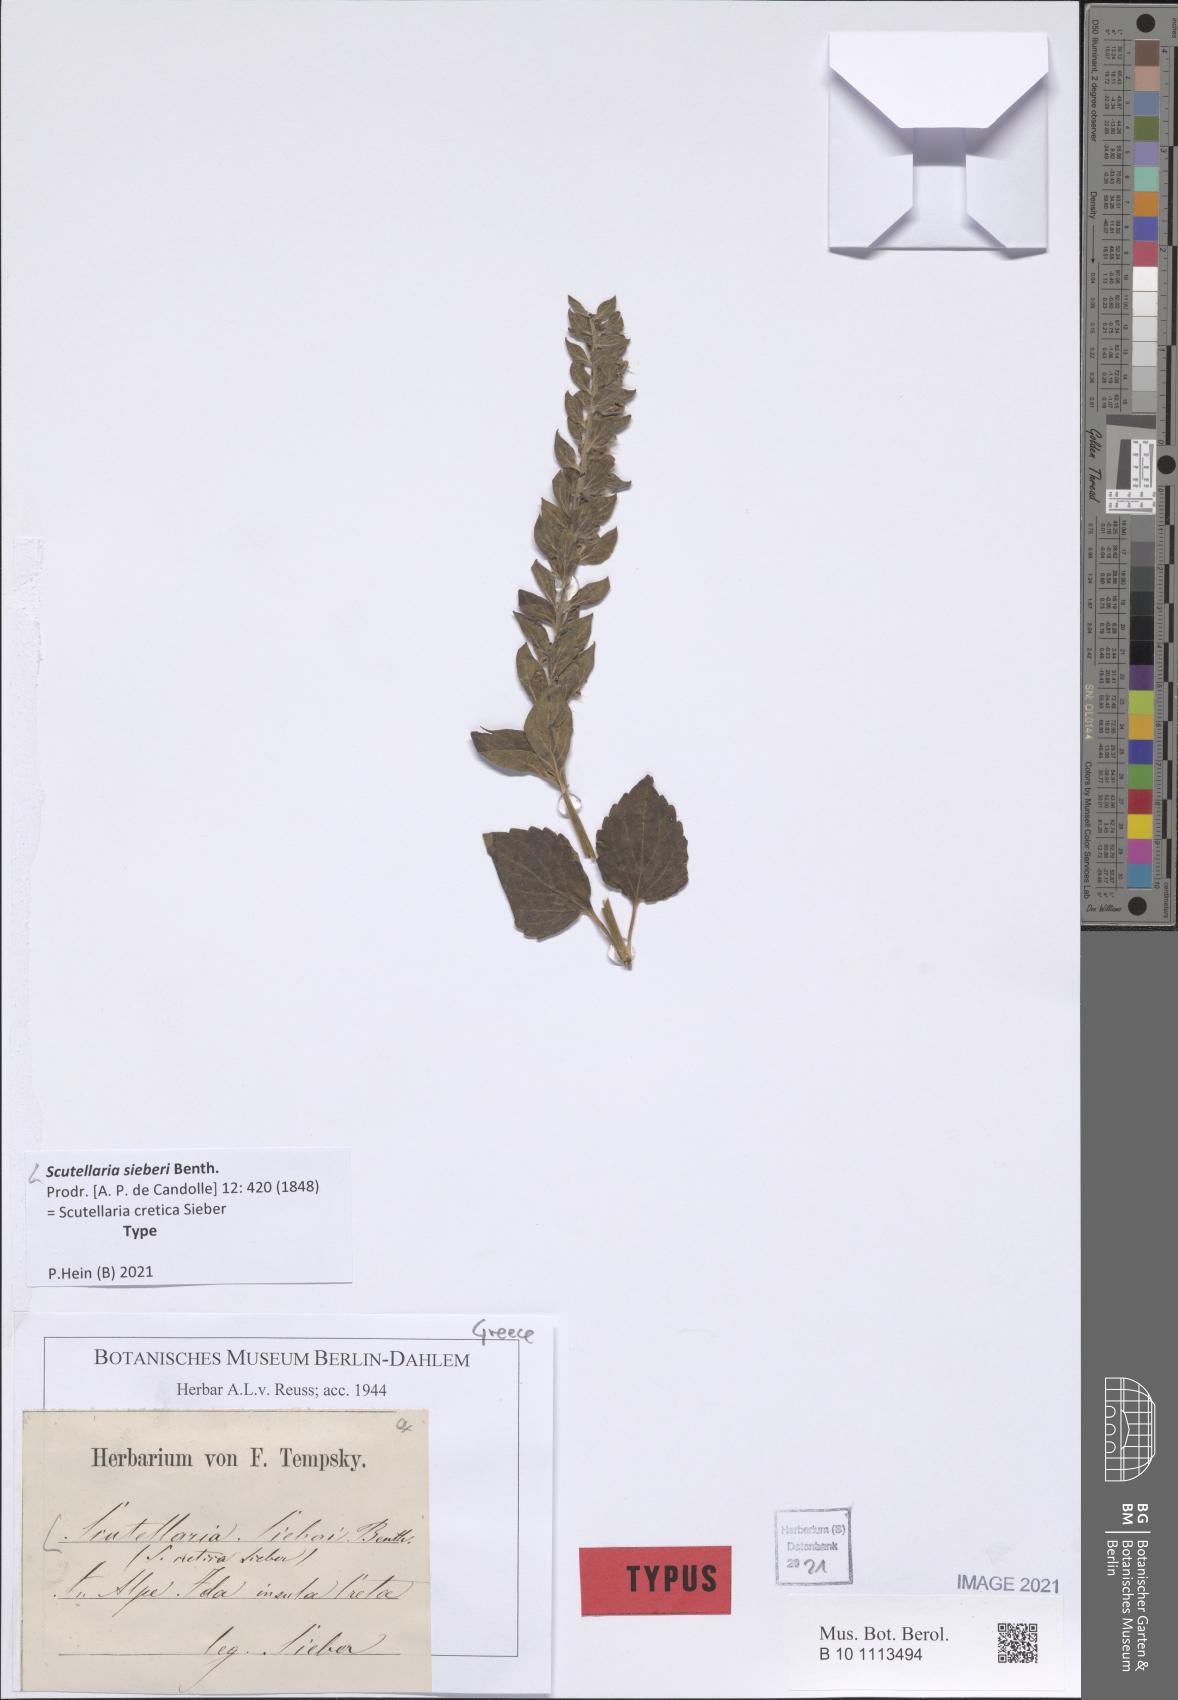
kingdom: Plantae
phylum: Tracheophyta
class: Magnoliopsida
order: Lamiales
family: Lamiaceae
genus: Scutellaria
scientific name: Scutellaria sieberi
